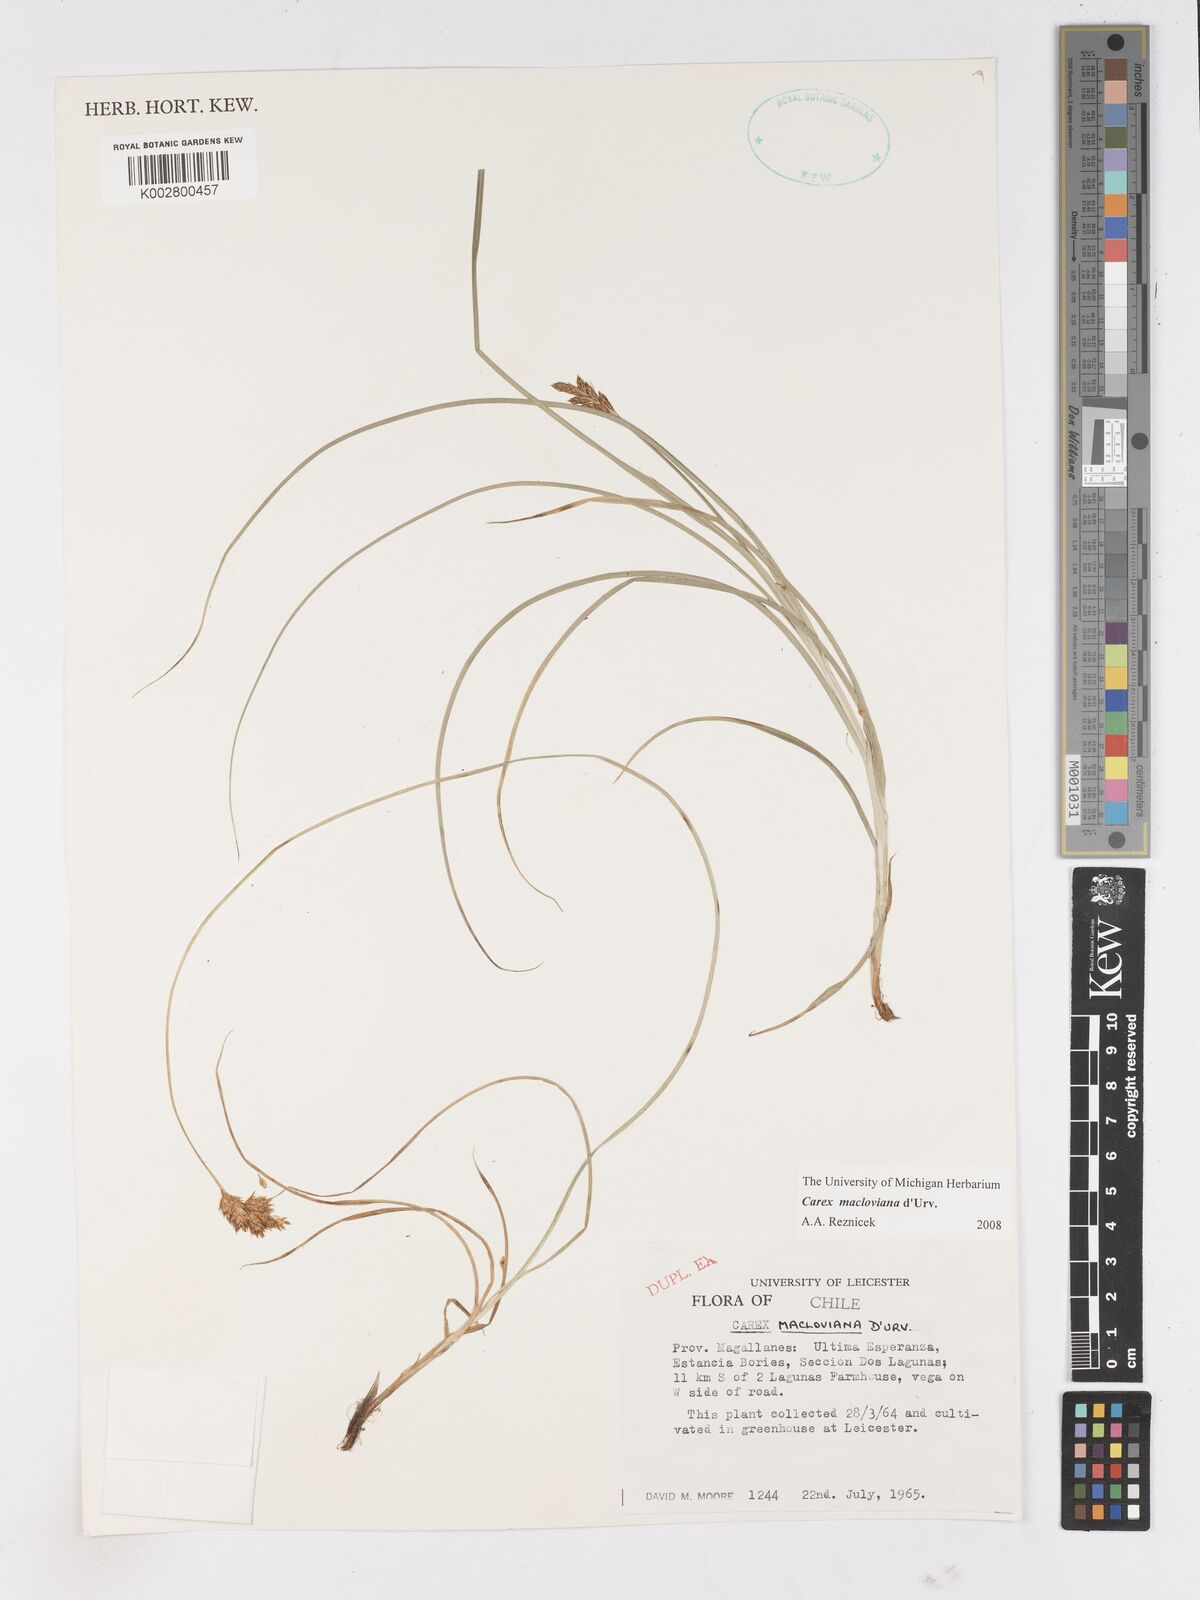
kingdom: Plantae
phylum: Tracheophyta
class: Liliopsida
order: Poales
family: Cyperaceae
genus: Carex
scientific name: Carex macloviana
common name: Falkland island sedge
